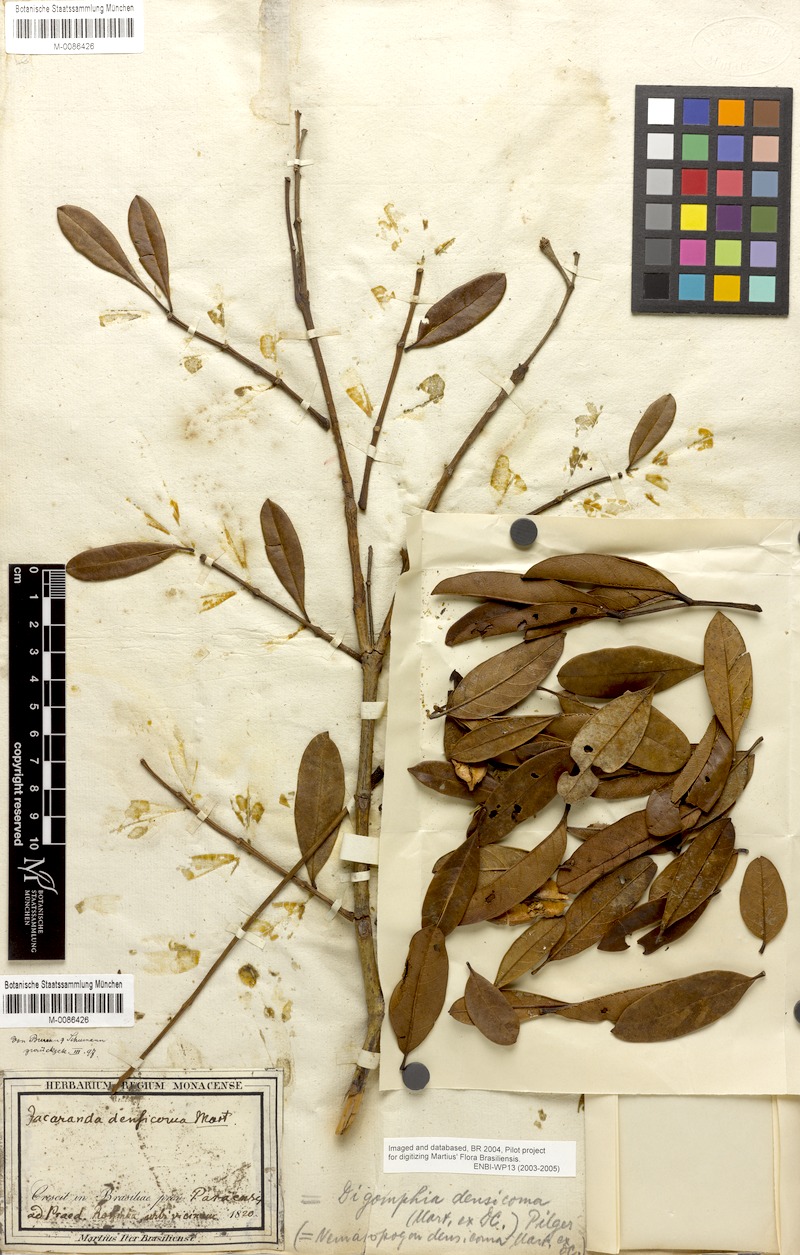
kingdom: Plantae
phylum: Tracheophyta
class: Magnoliopsida
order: Lamiales
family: Bignoniaceae
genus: Digomphia
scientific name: Digomphia densicoma
